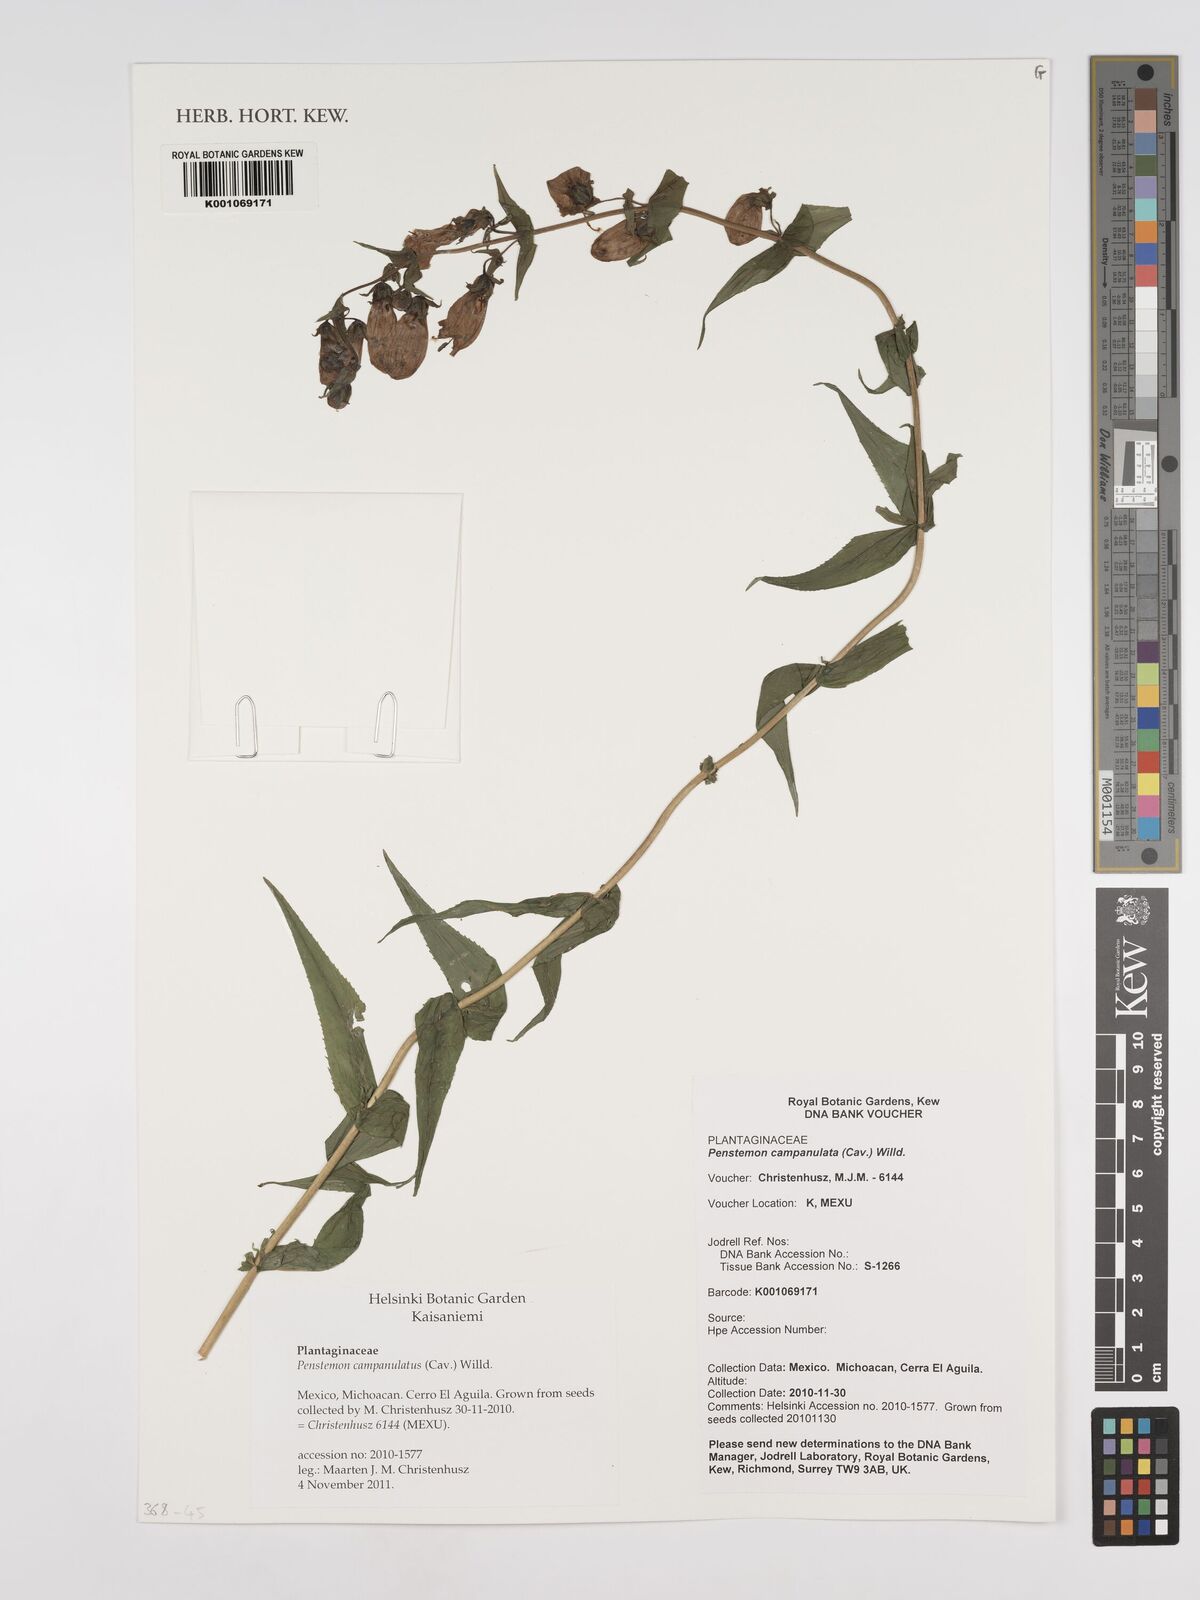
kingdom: Plantae
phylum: Tracheophyta
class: Magnoliopsida
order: Lamiales
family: Plantaginaceae
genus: Penstemon
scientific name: Penstemon campanulatus
